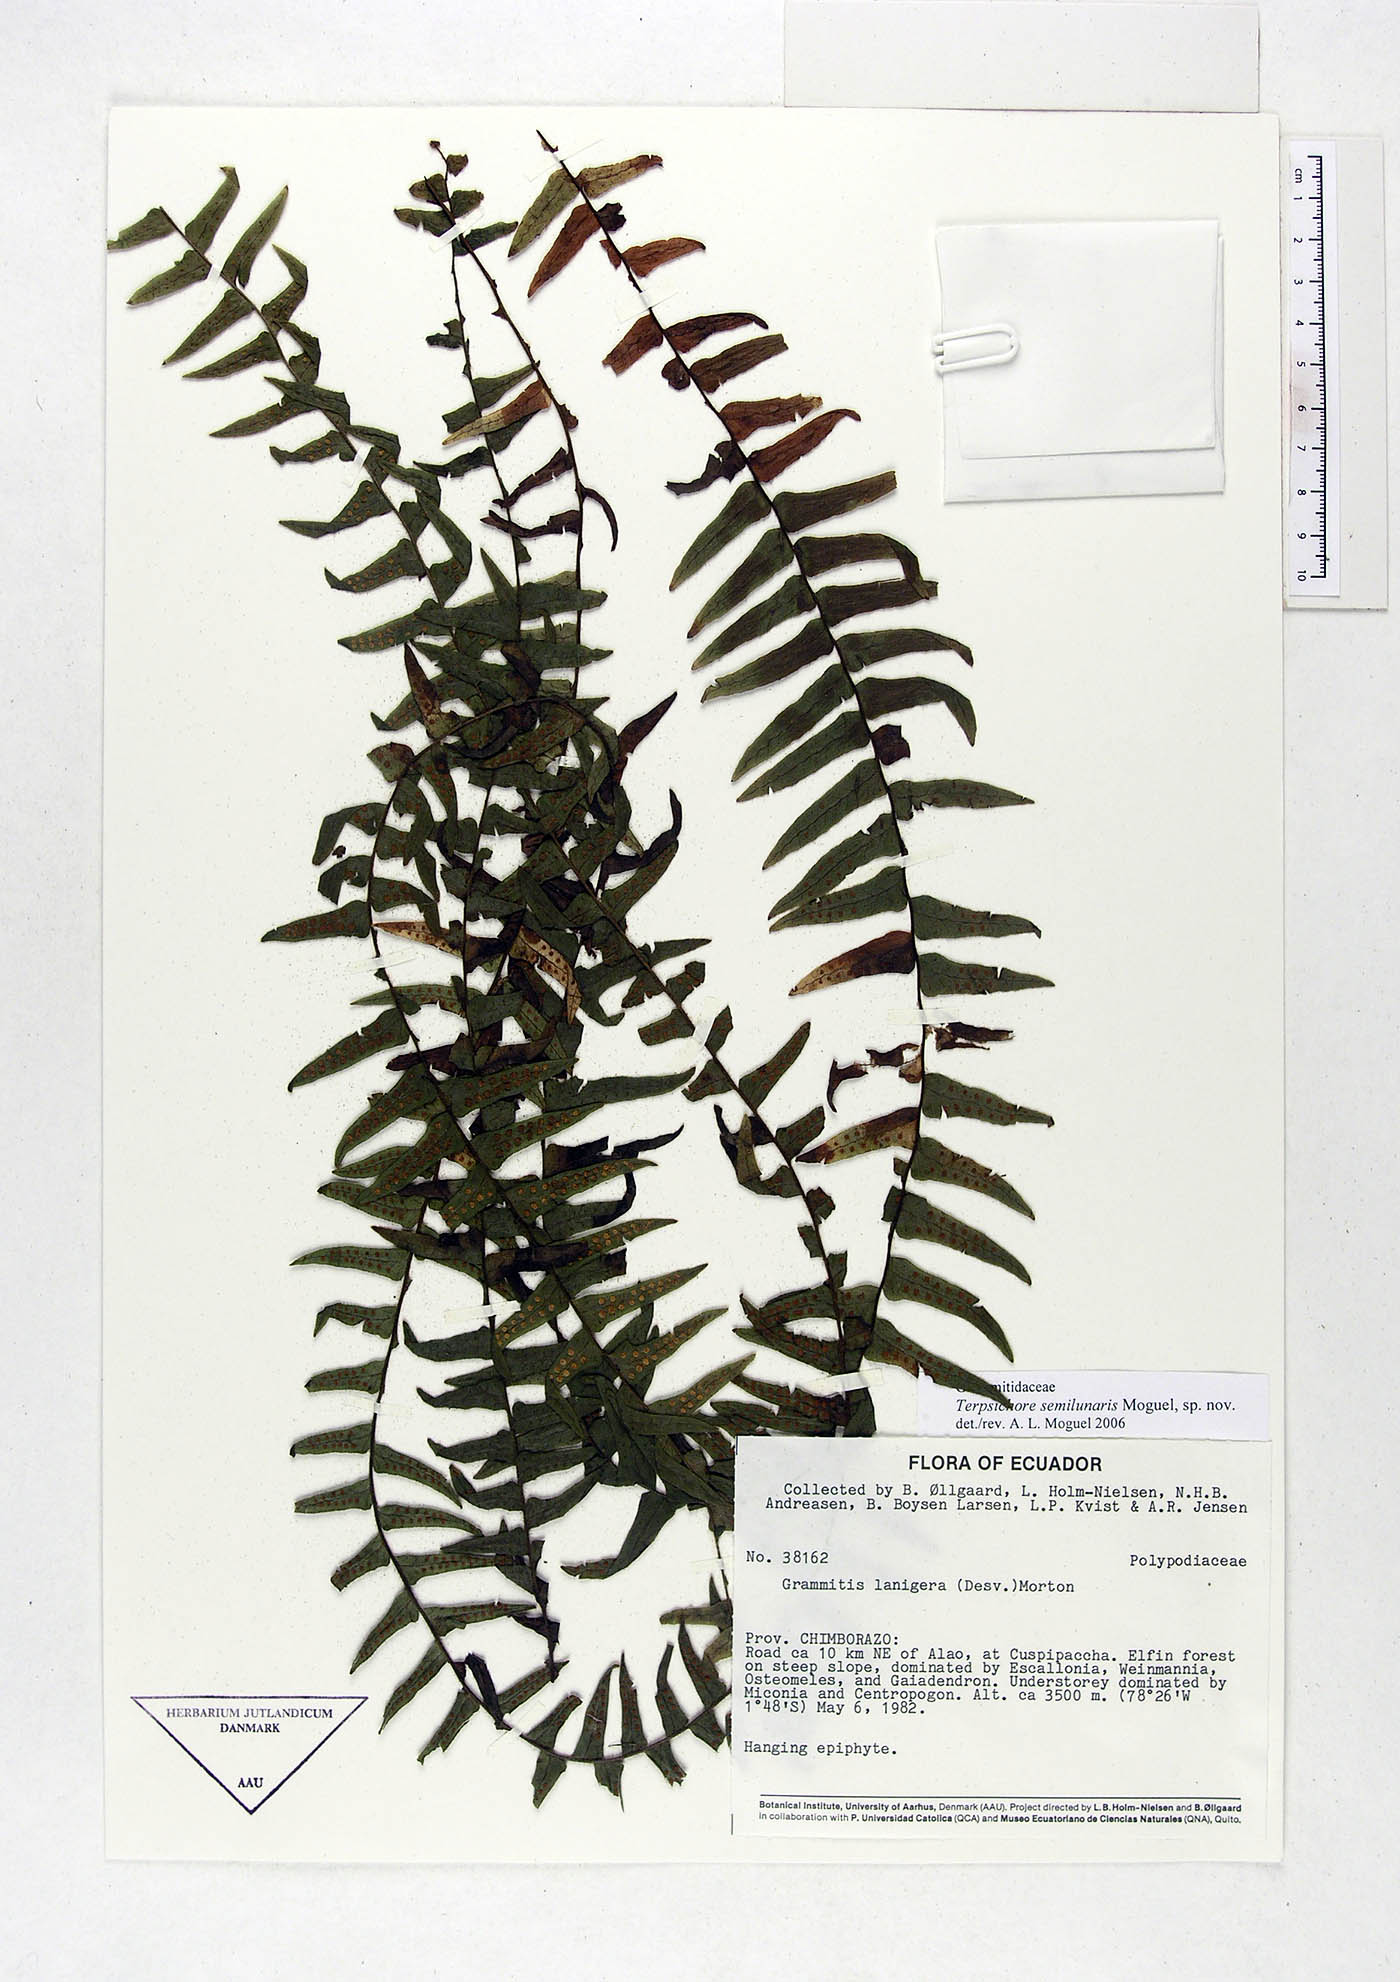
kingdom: Plantae
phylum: Tracheophyta
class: Polypodiopsida
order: Polypodiales
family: Polypodiaceae
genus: Alansmia
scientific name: Alansmia semilunaris
